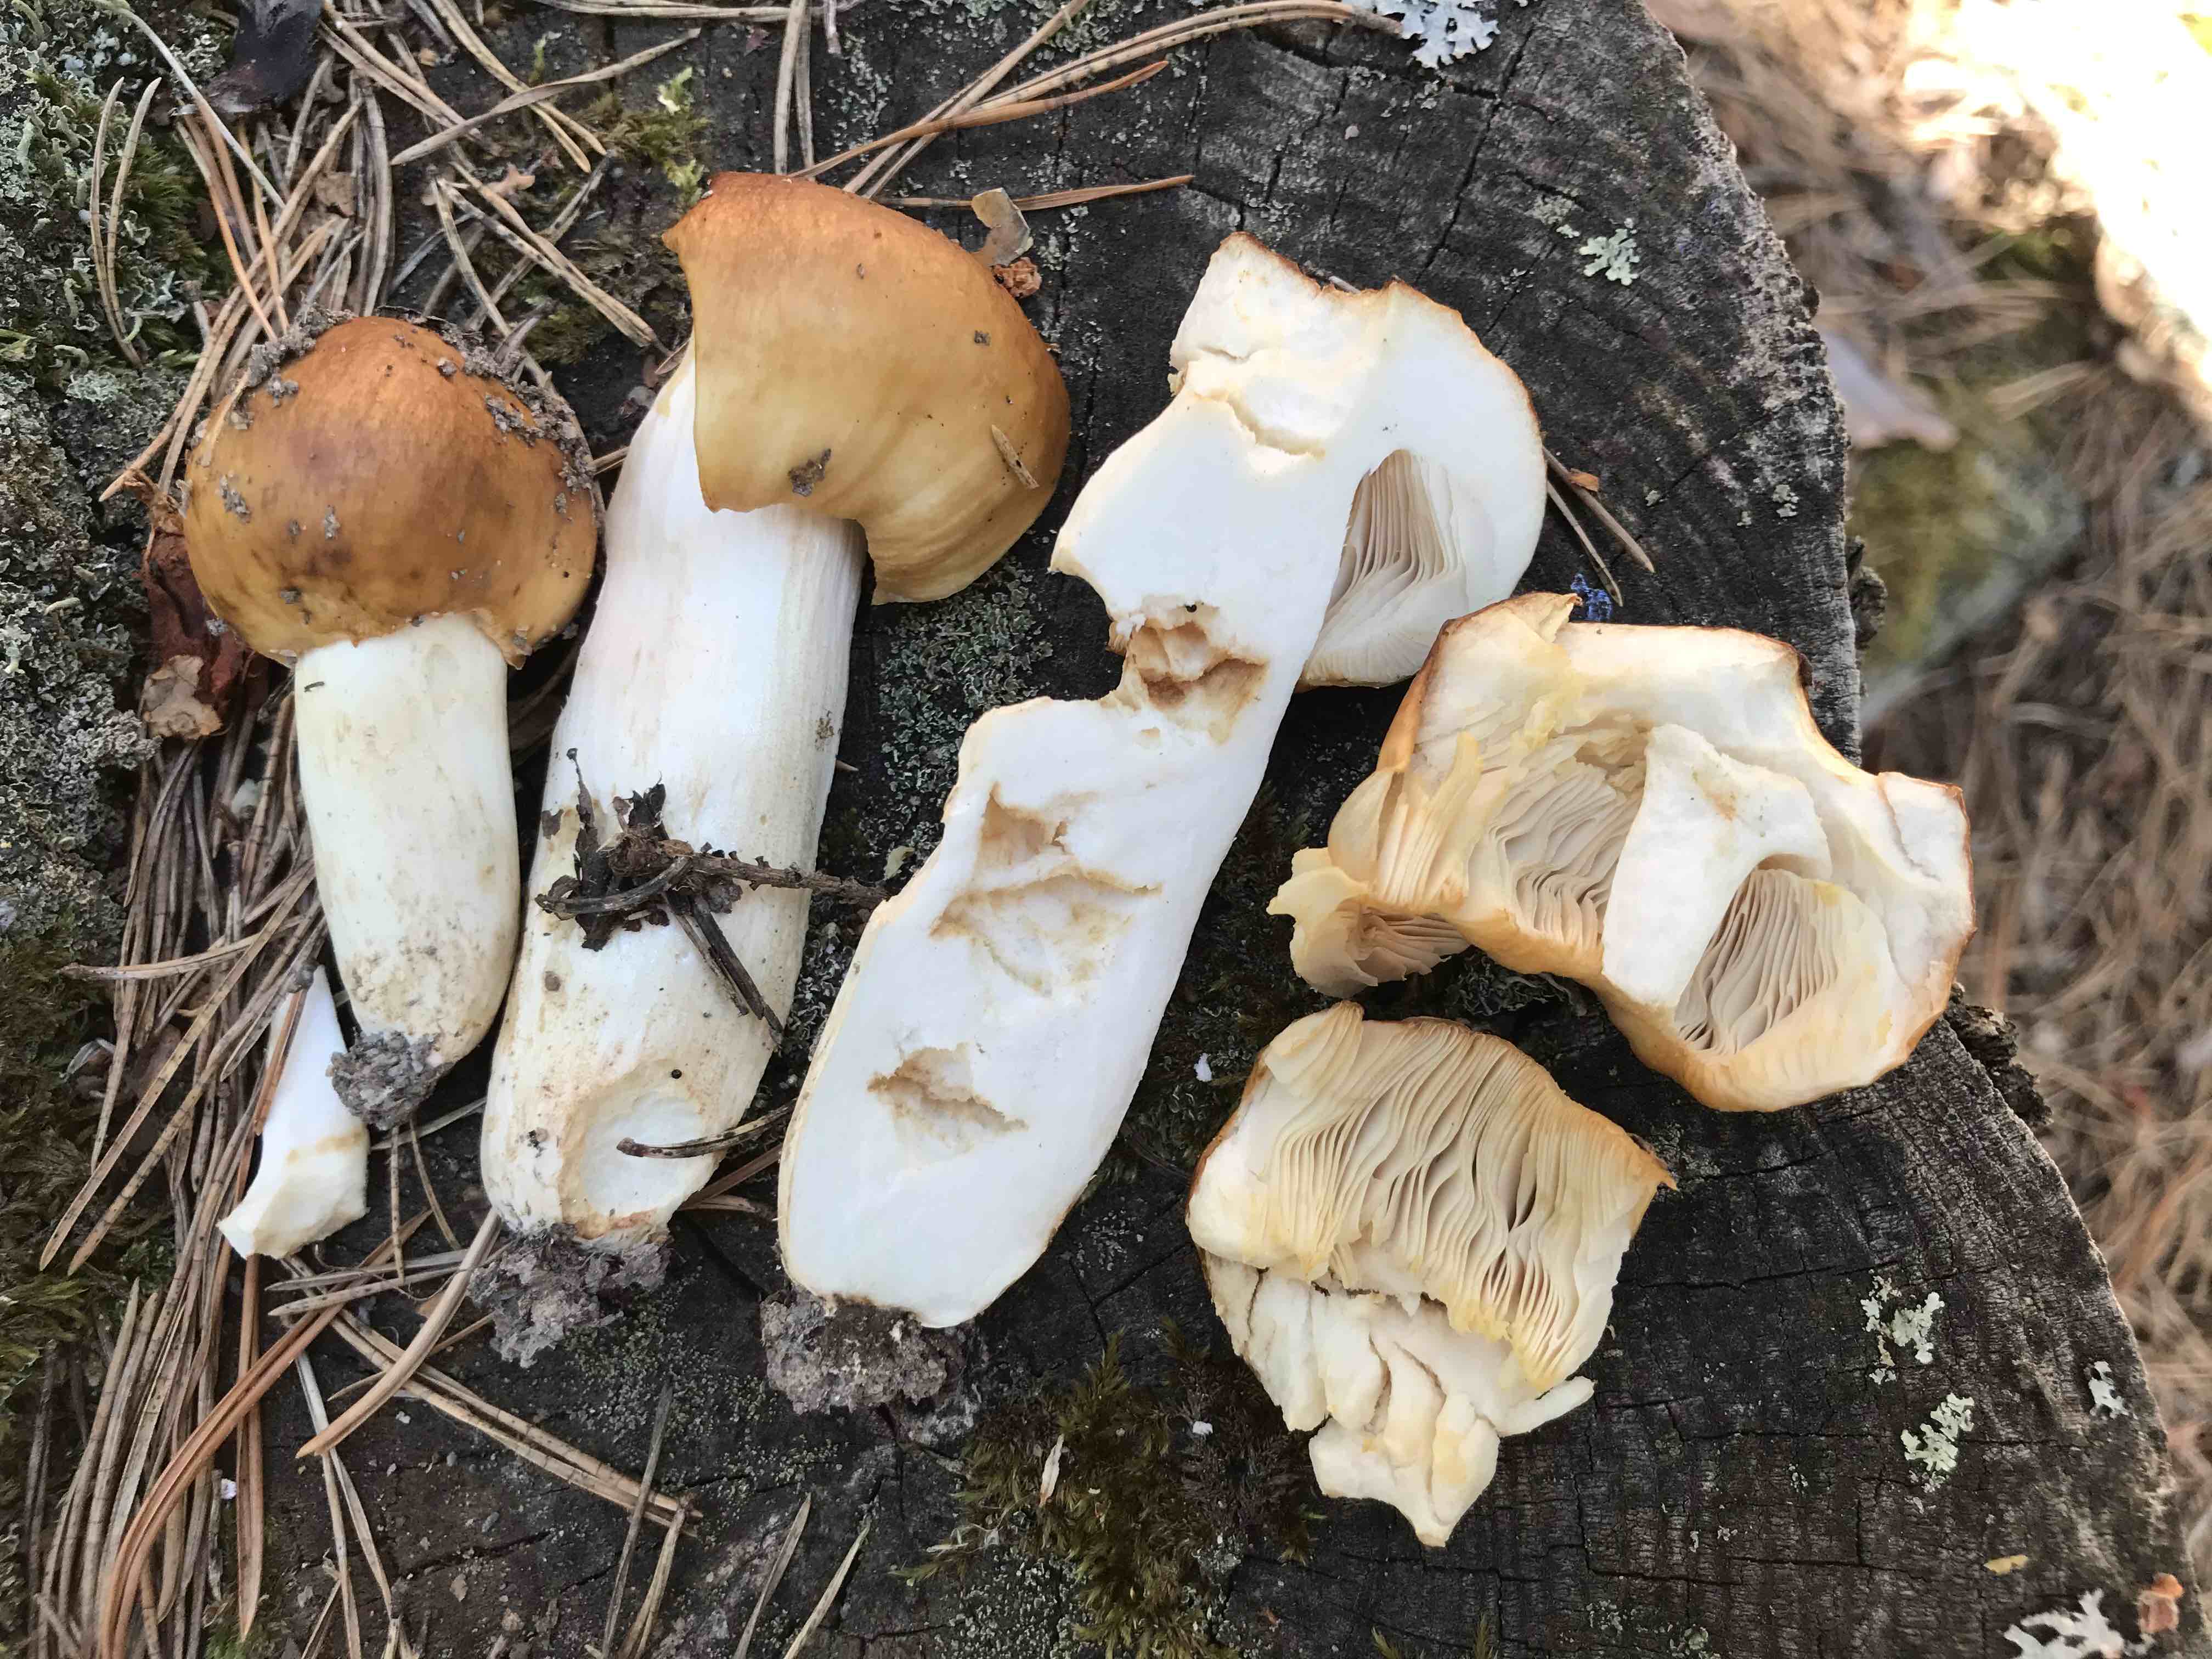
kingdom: Fungi
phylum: Basidiomycota
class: Agaricomycetes
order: Russulales
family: Russulaceae
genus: Russula
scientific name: Russula
